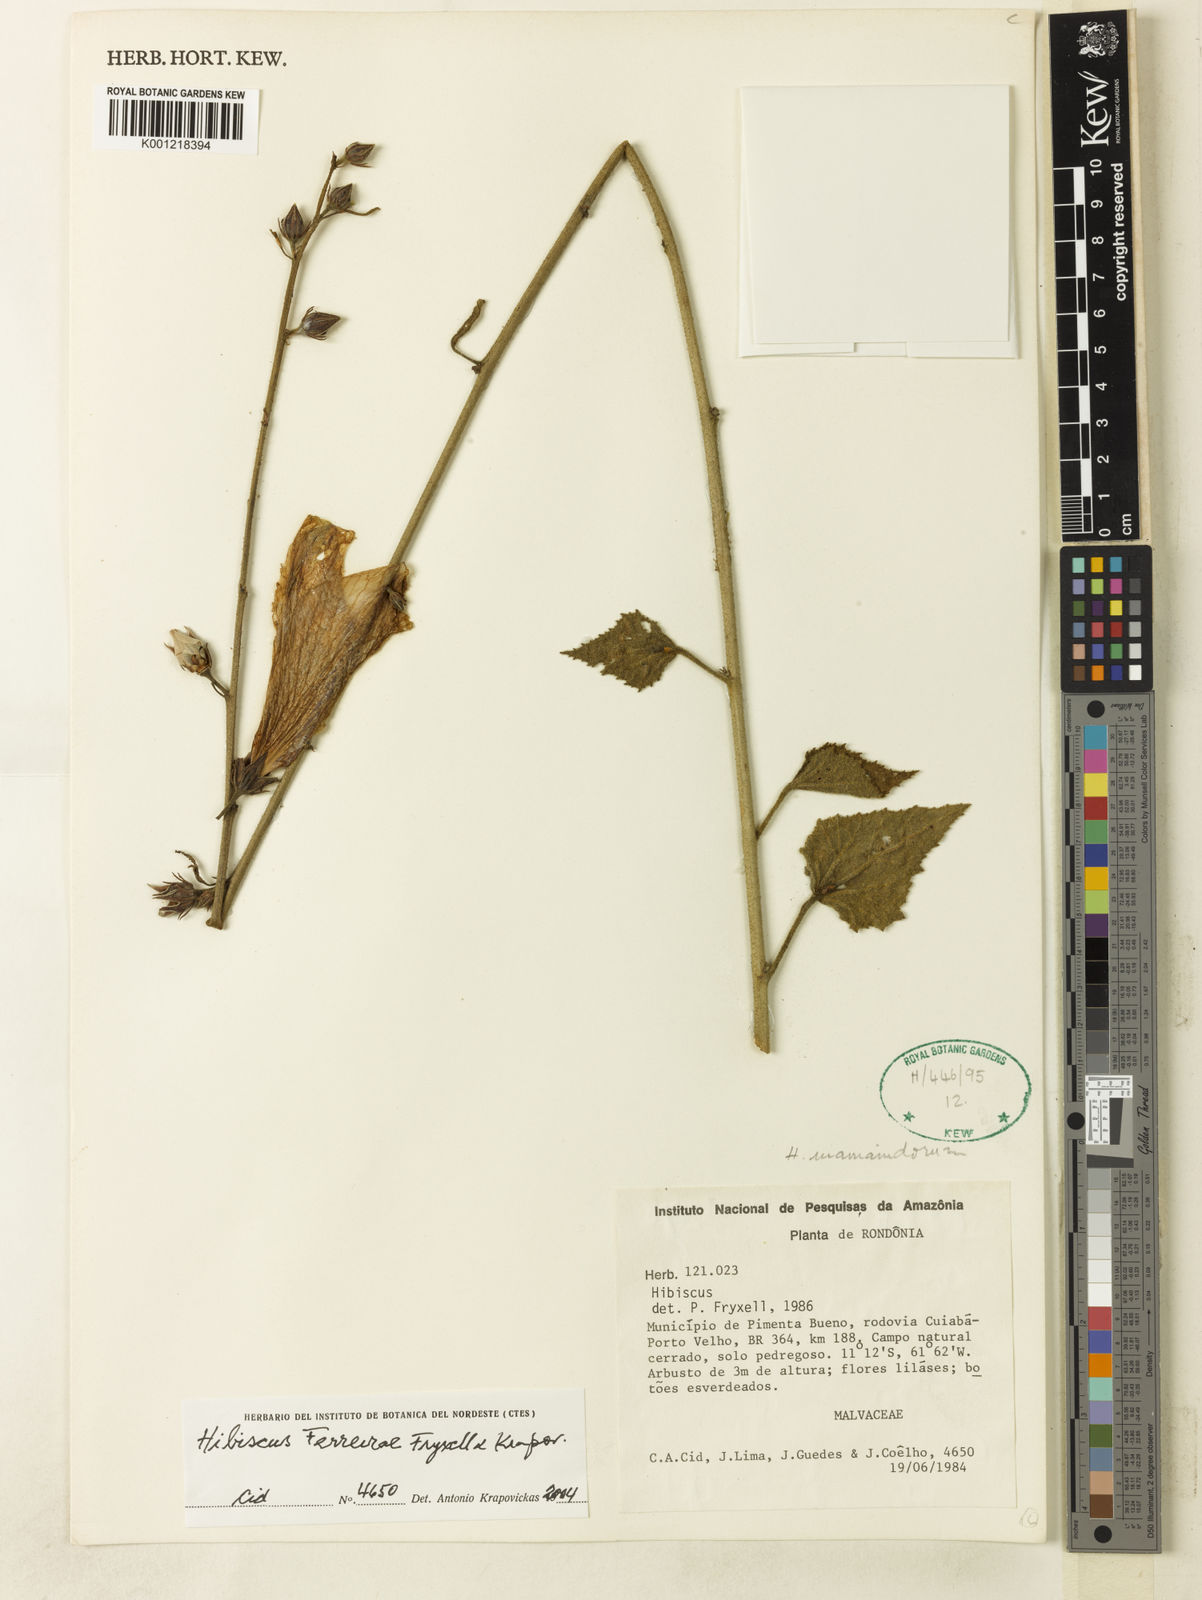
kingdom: Plantae
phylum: Tracheophyta
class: Magnoliopsida
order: Malvales
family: Malvaceae
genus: Hibiscus
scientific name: Hibiscus ferreirae
